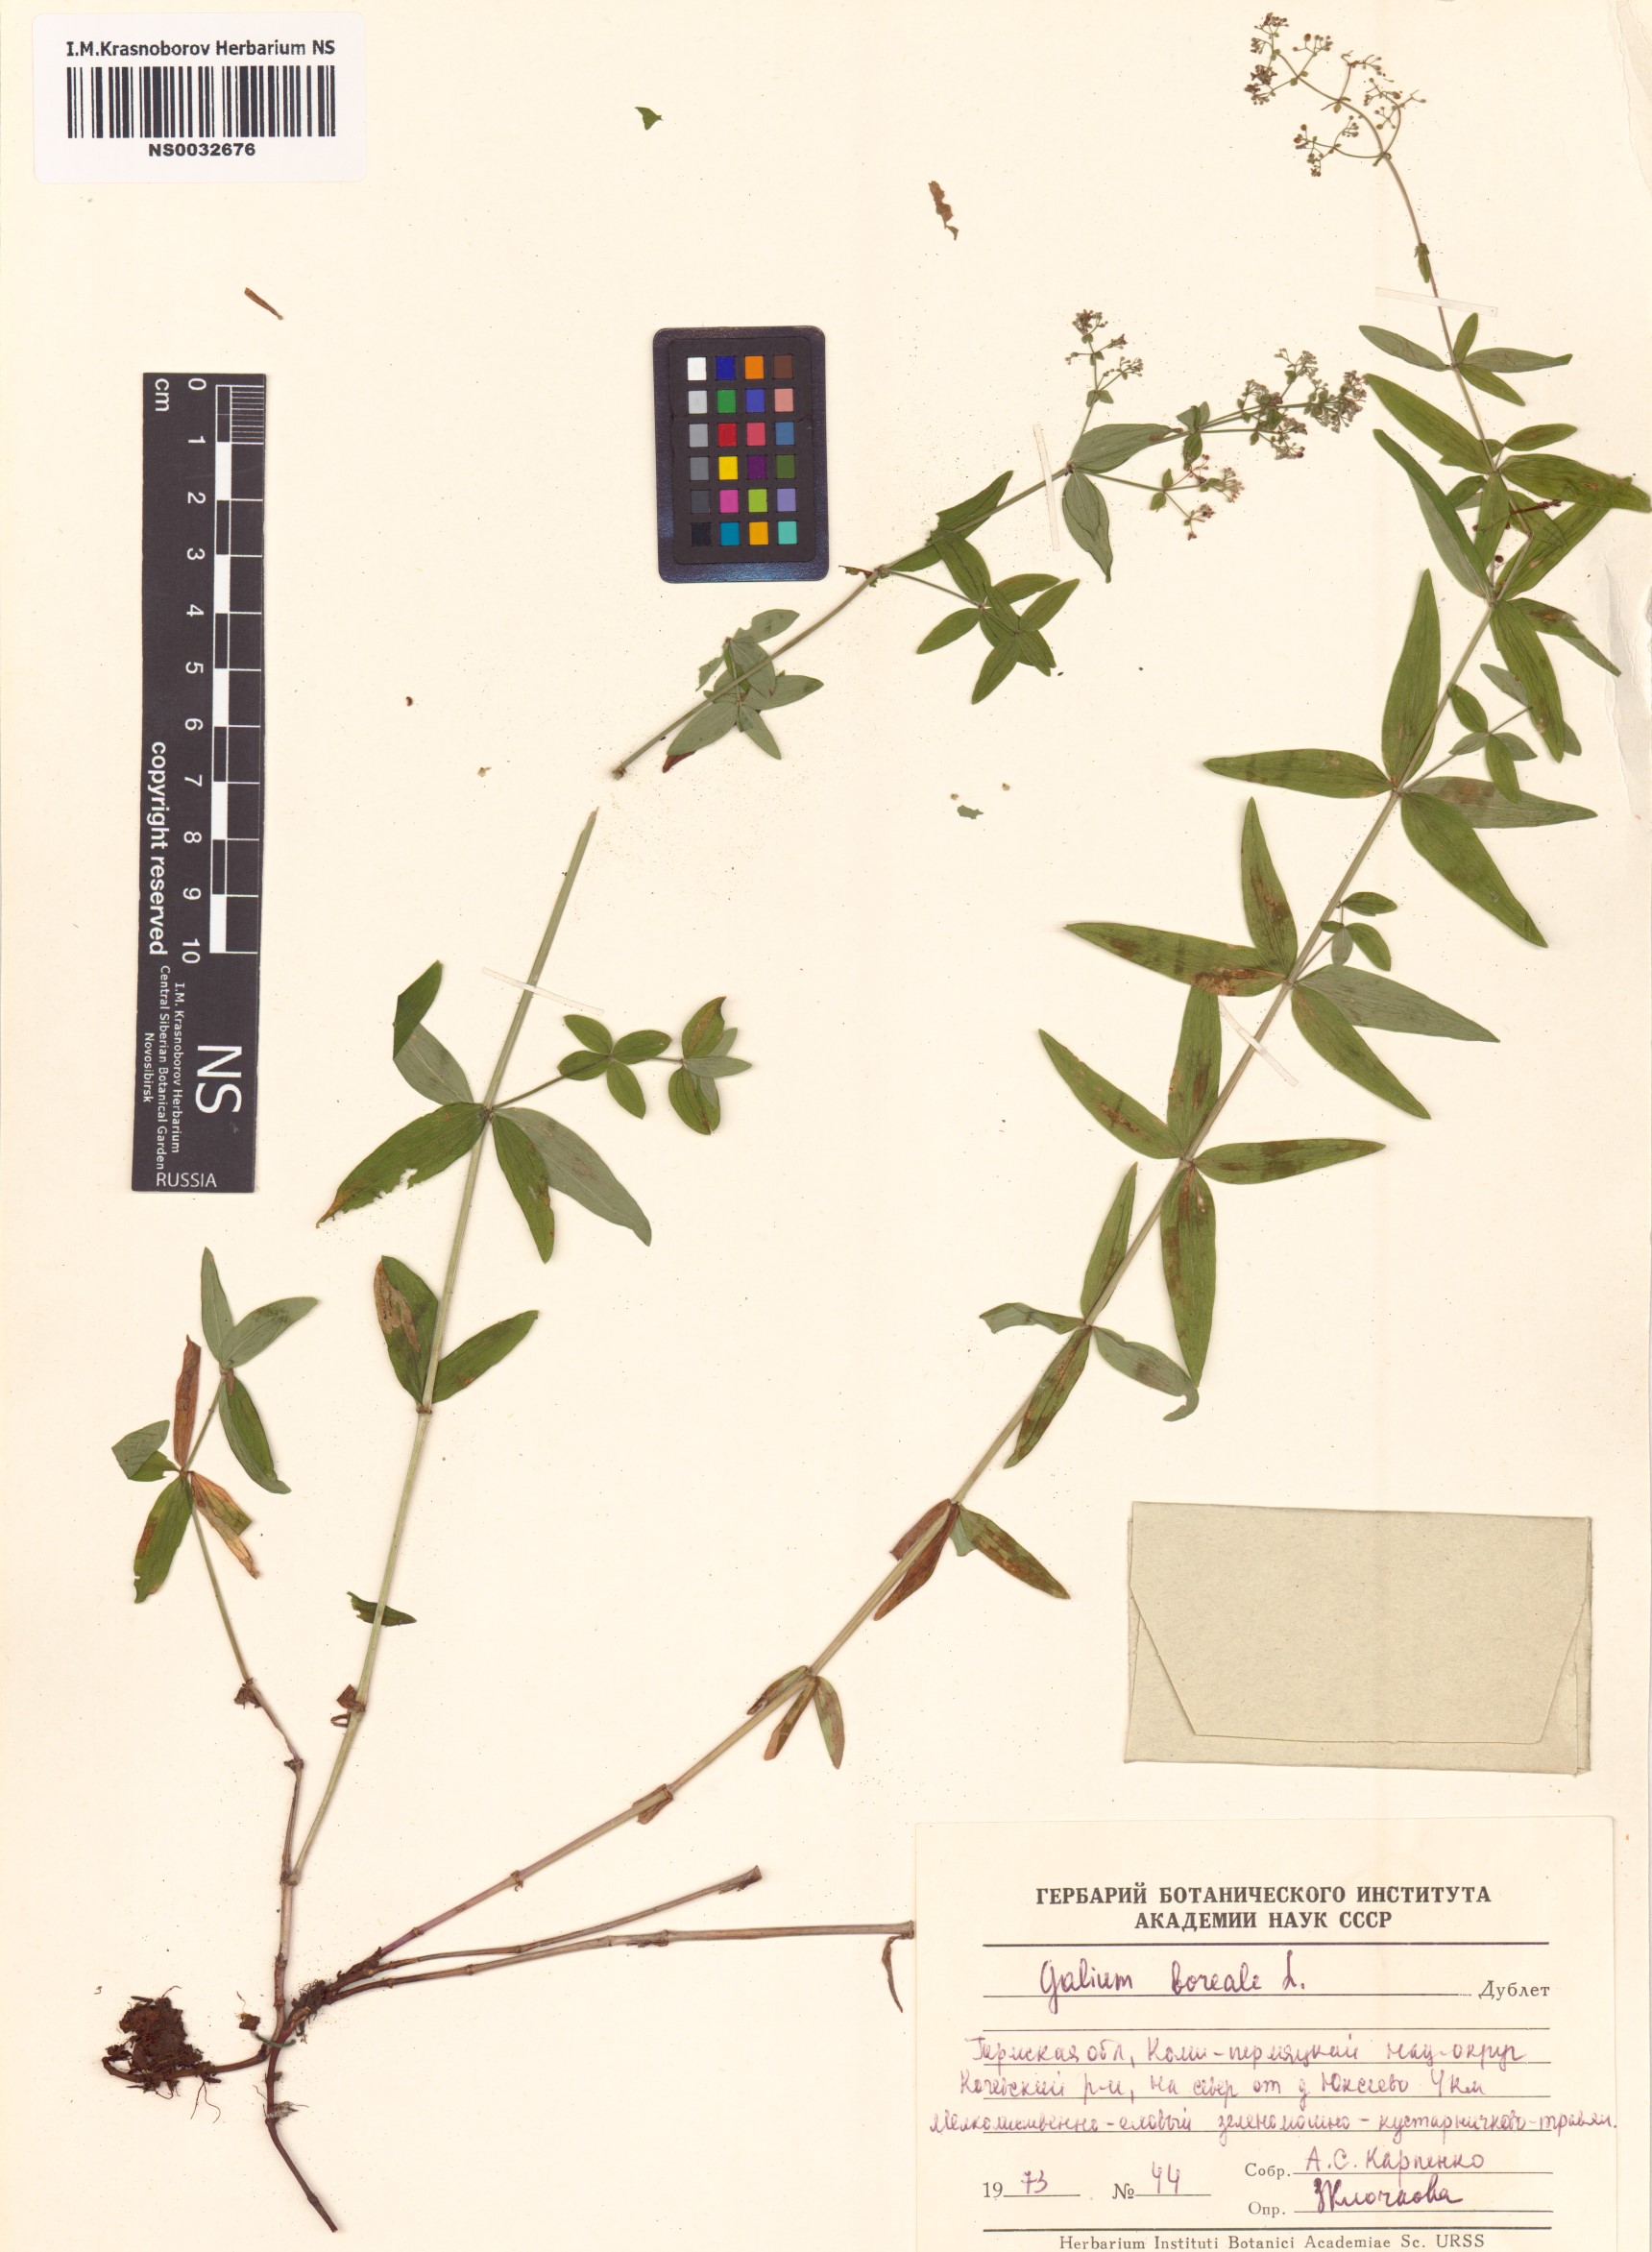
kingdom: Plantae
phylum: Tracheophyta
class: Magnoliopsida
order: Gentianales
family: Rubiaceae
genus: Galium
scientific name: Galium boreale
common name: Northern bedstraw
